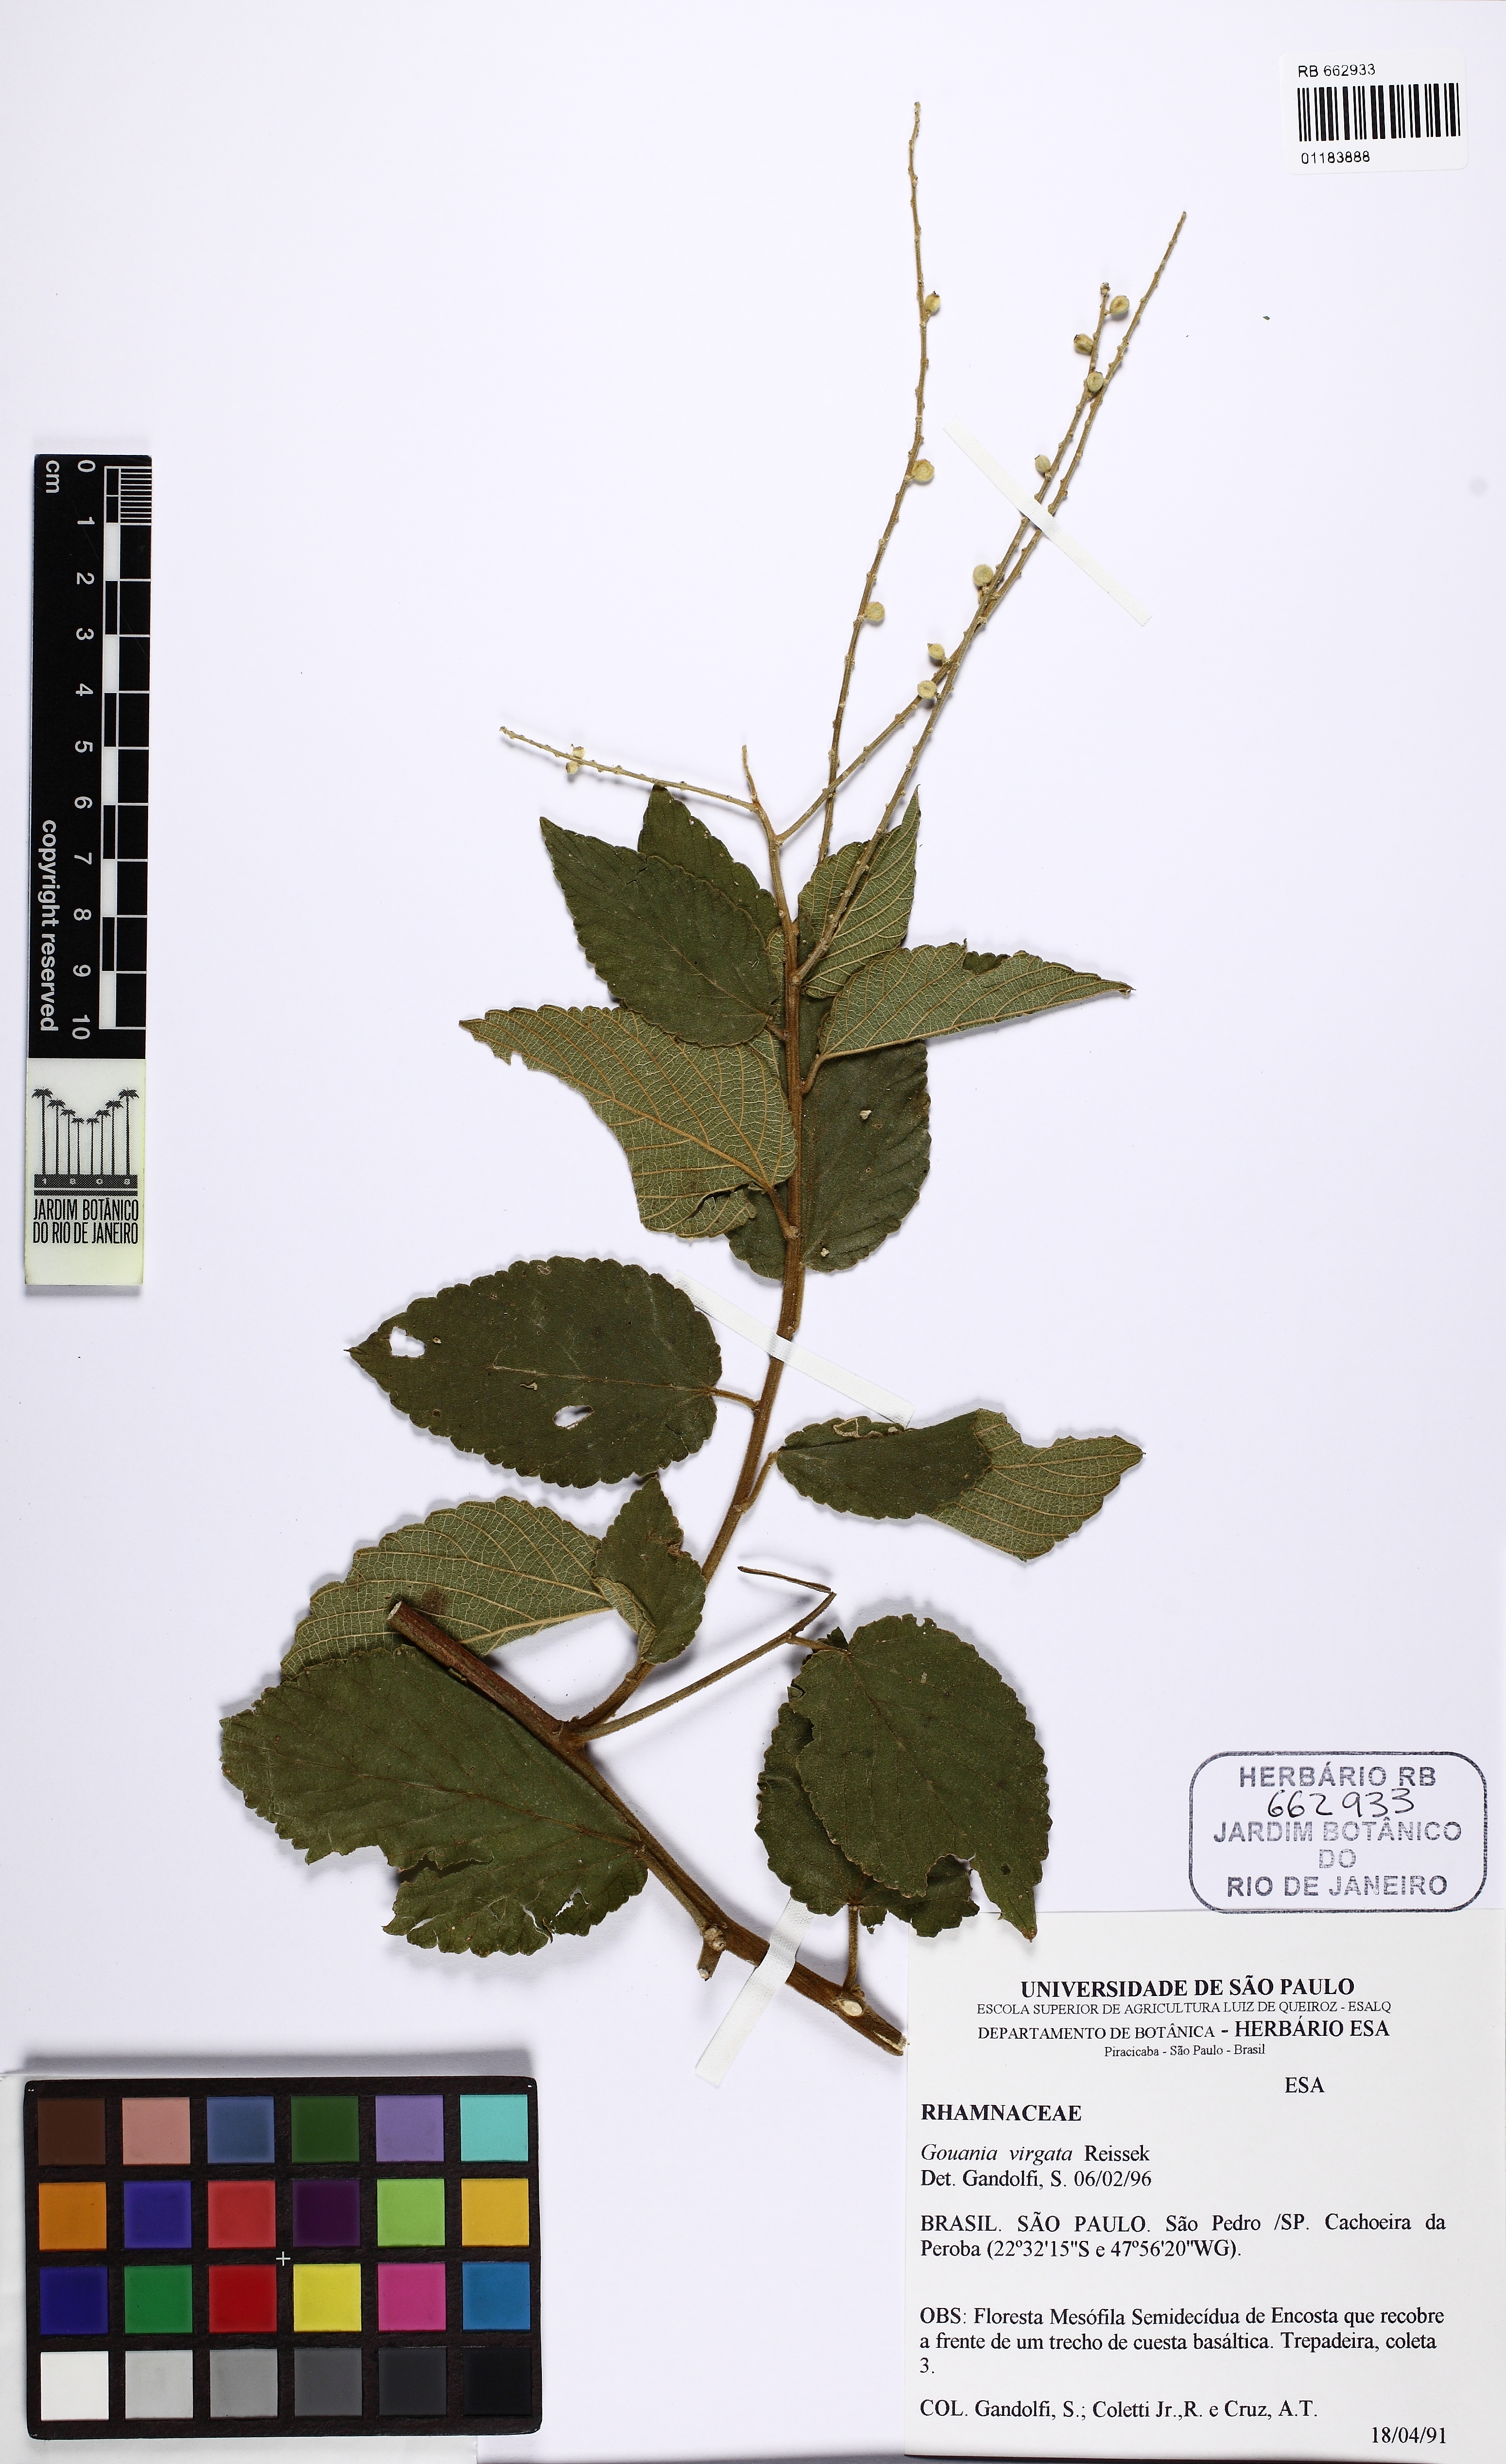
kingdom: Plantae
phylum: Tracheophyta
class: Magnoliopsida
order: Rosales
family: Rhamnaceae
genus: Gouania
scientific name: Gouania lupuloides
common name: Chewstick
